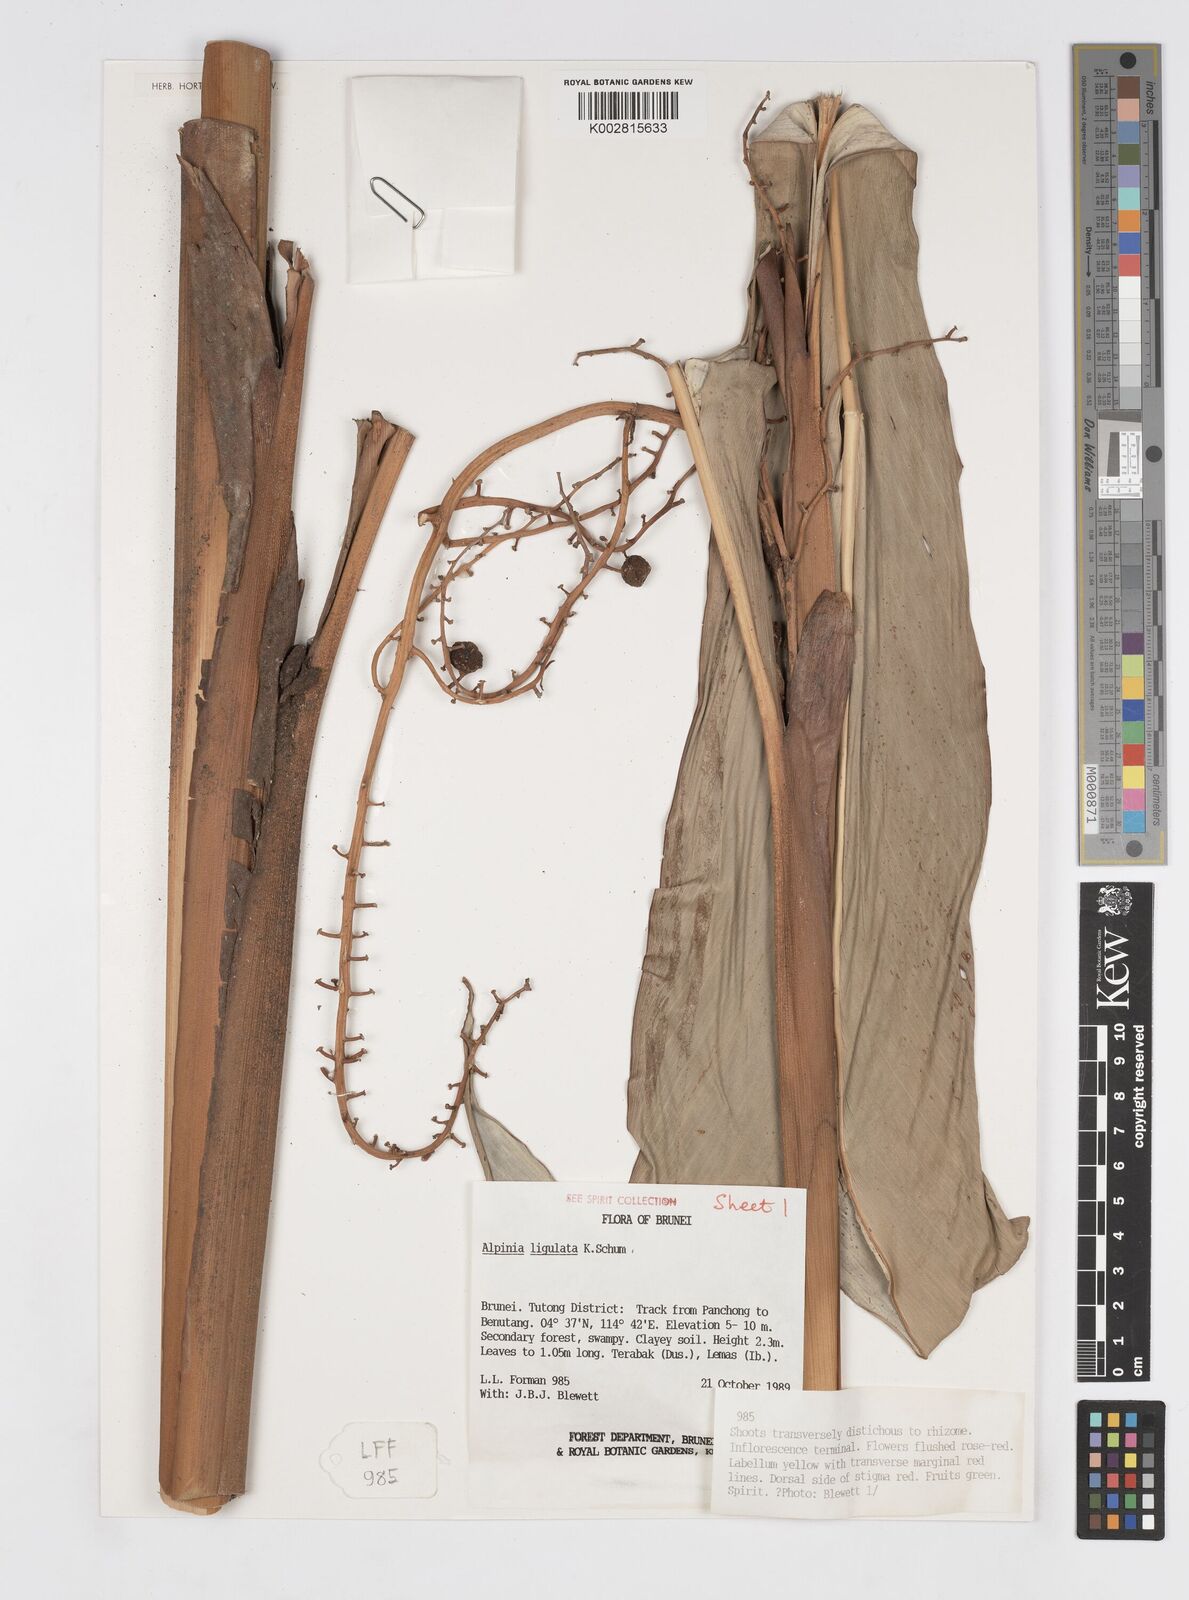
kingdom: Plantae
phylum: Tracheophyta
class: Liliopsida
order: Zingiberales
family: Zingiberaceae
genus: Alpinia
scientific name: Alpinia ligulata
